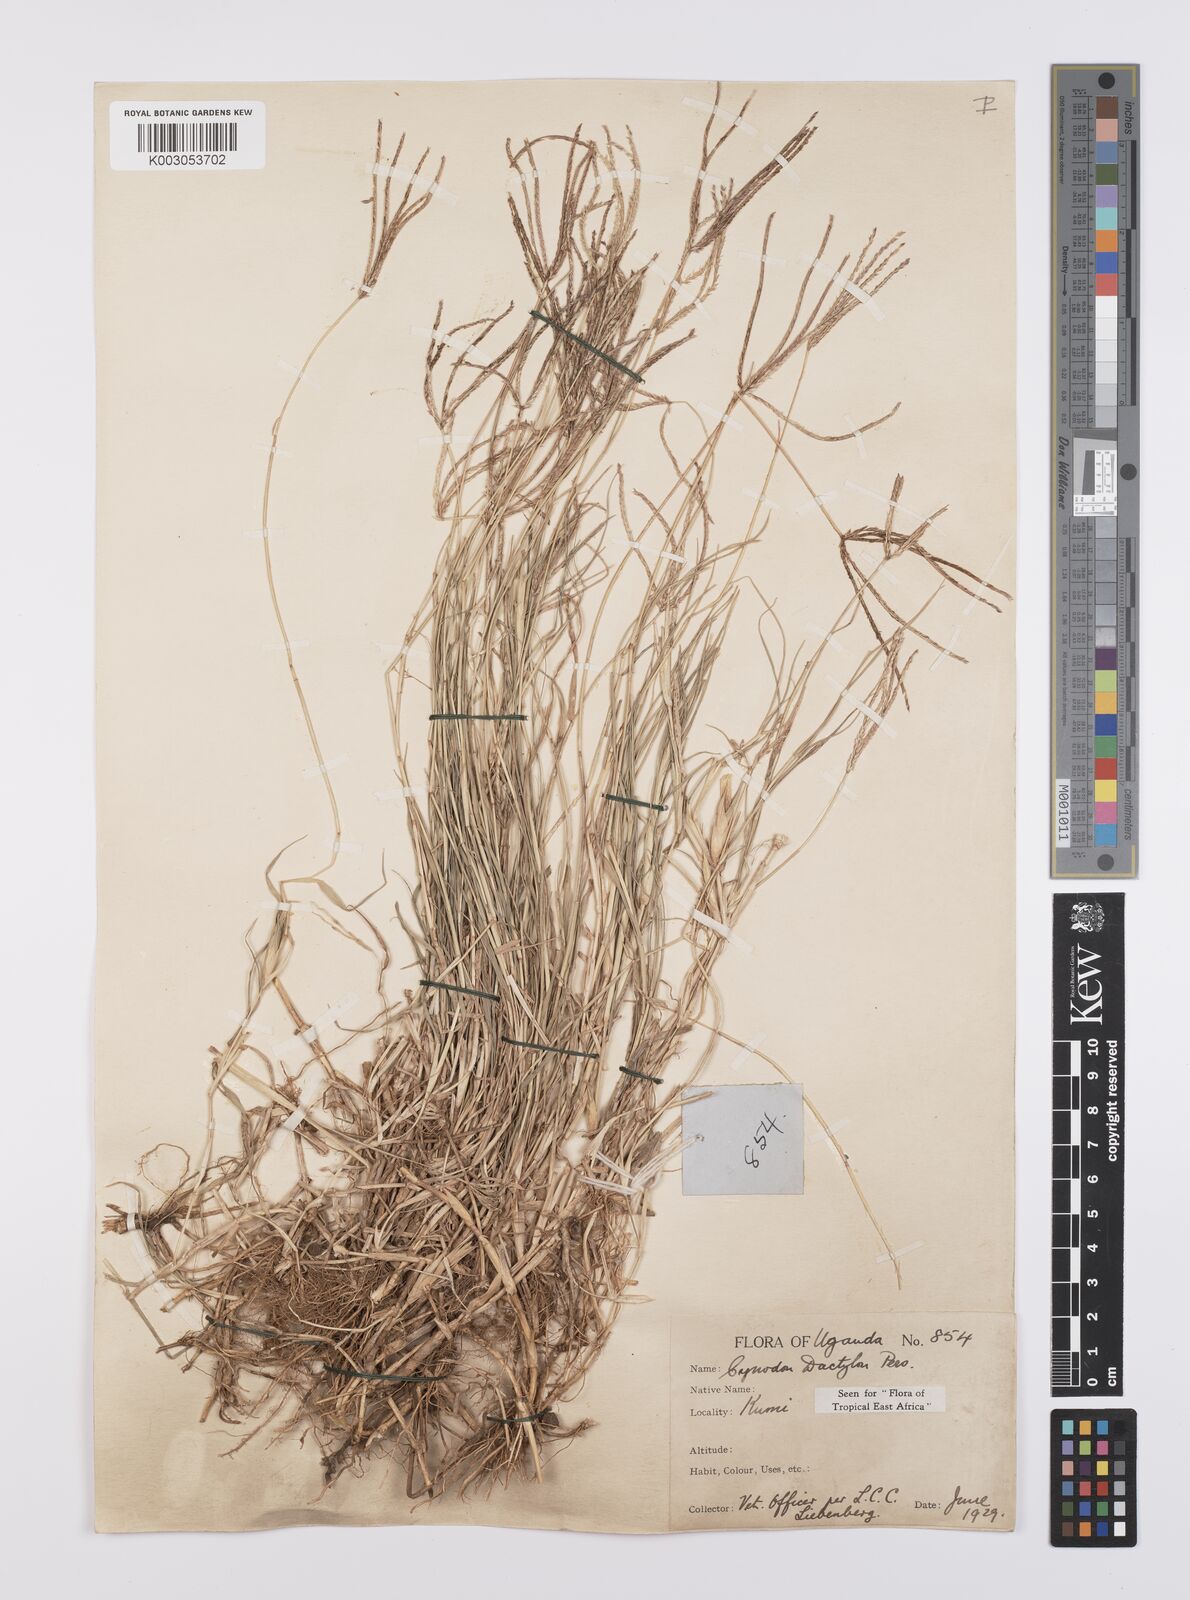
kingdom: Plantae
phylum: Tracheophyta
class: Liliopsida
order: Poales
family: Poaceae
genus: Cynodon
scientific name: Cynodon dactylon
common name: Bermuda grass
